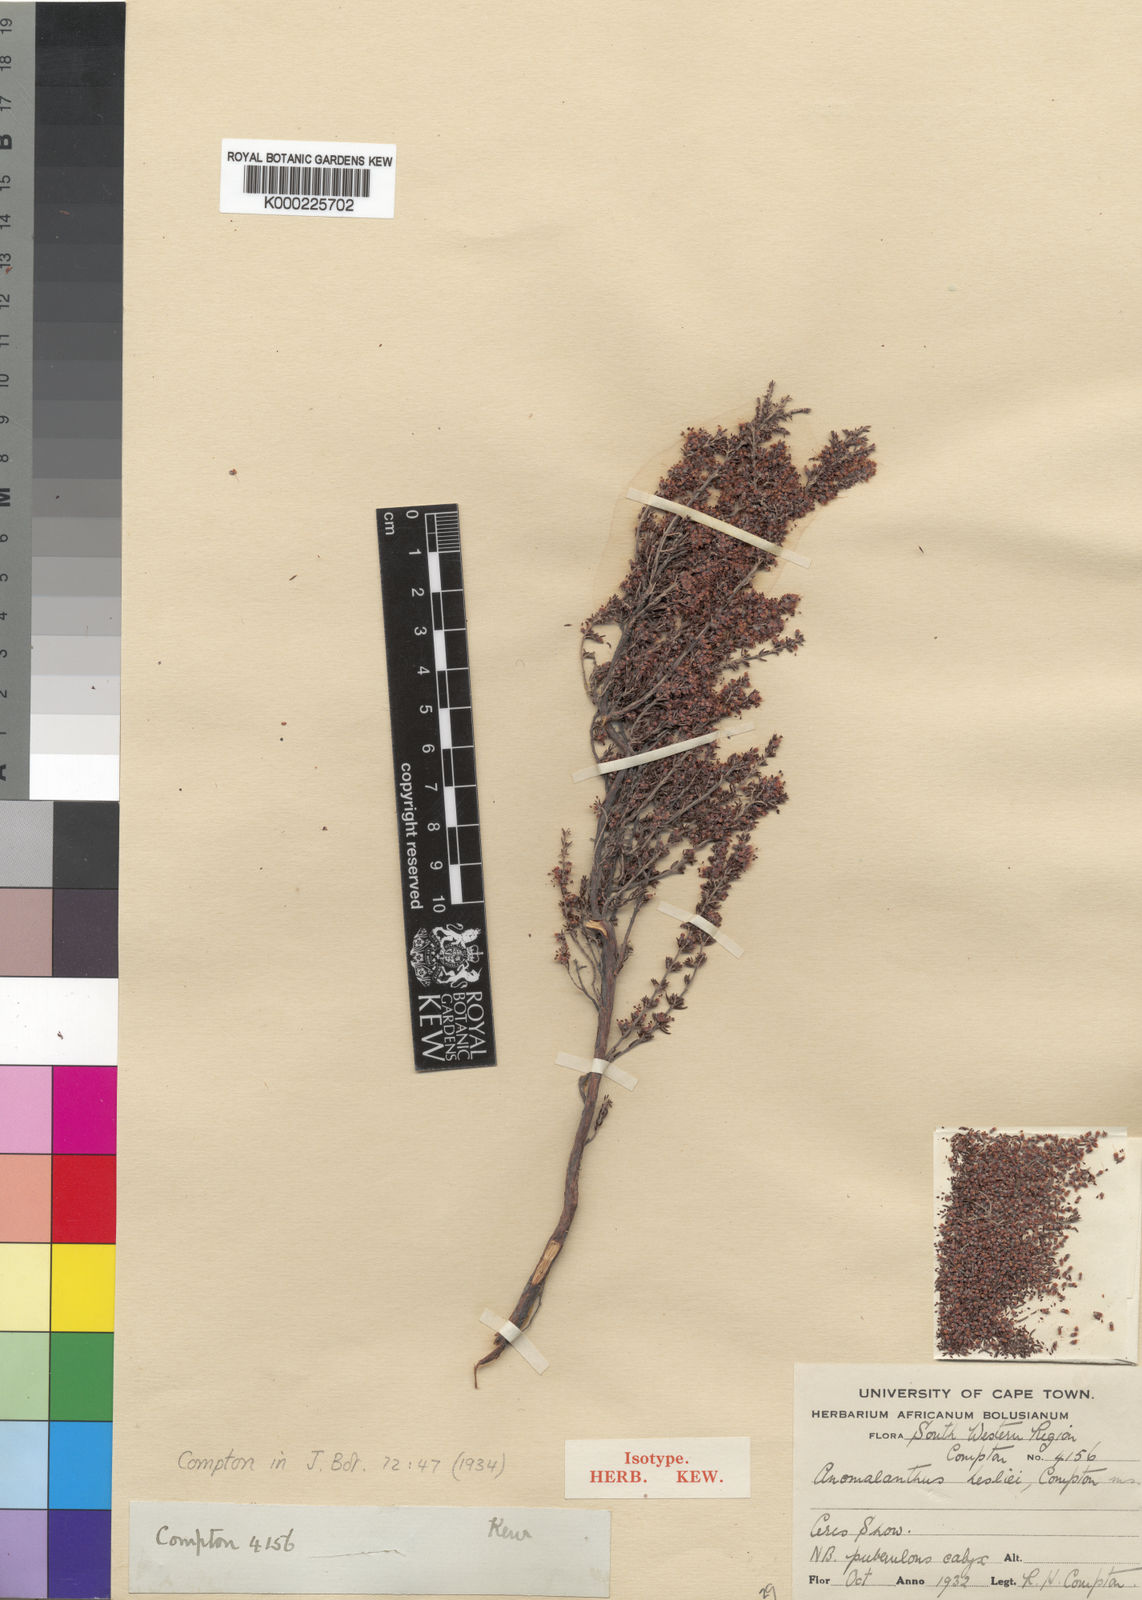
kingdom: Plantae
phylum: Tracheophyta
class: Magnoliopsida
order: Ericales
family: Ericaceae
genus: Erica
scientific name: Erica anguliger
